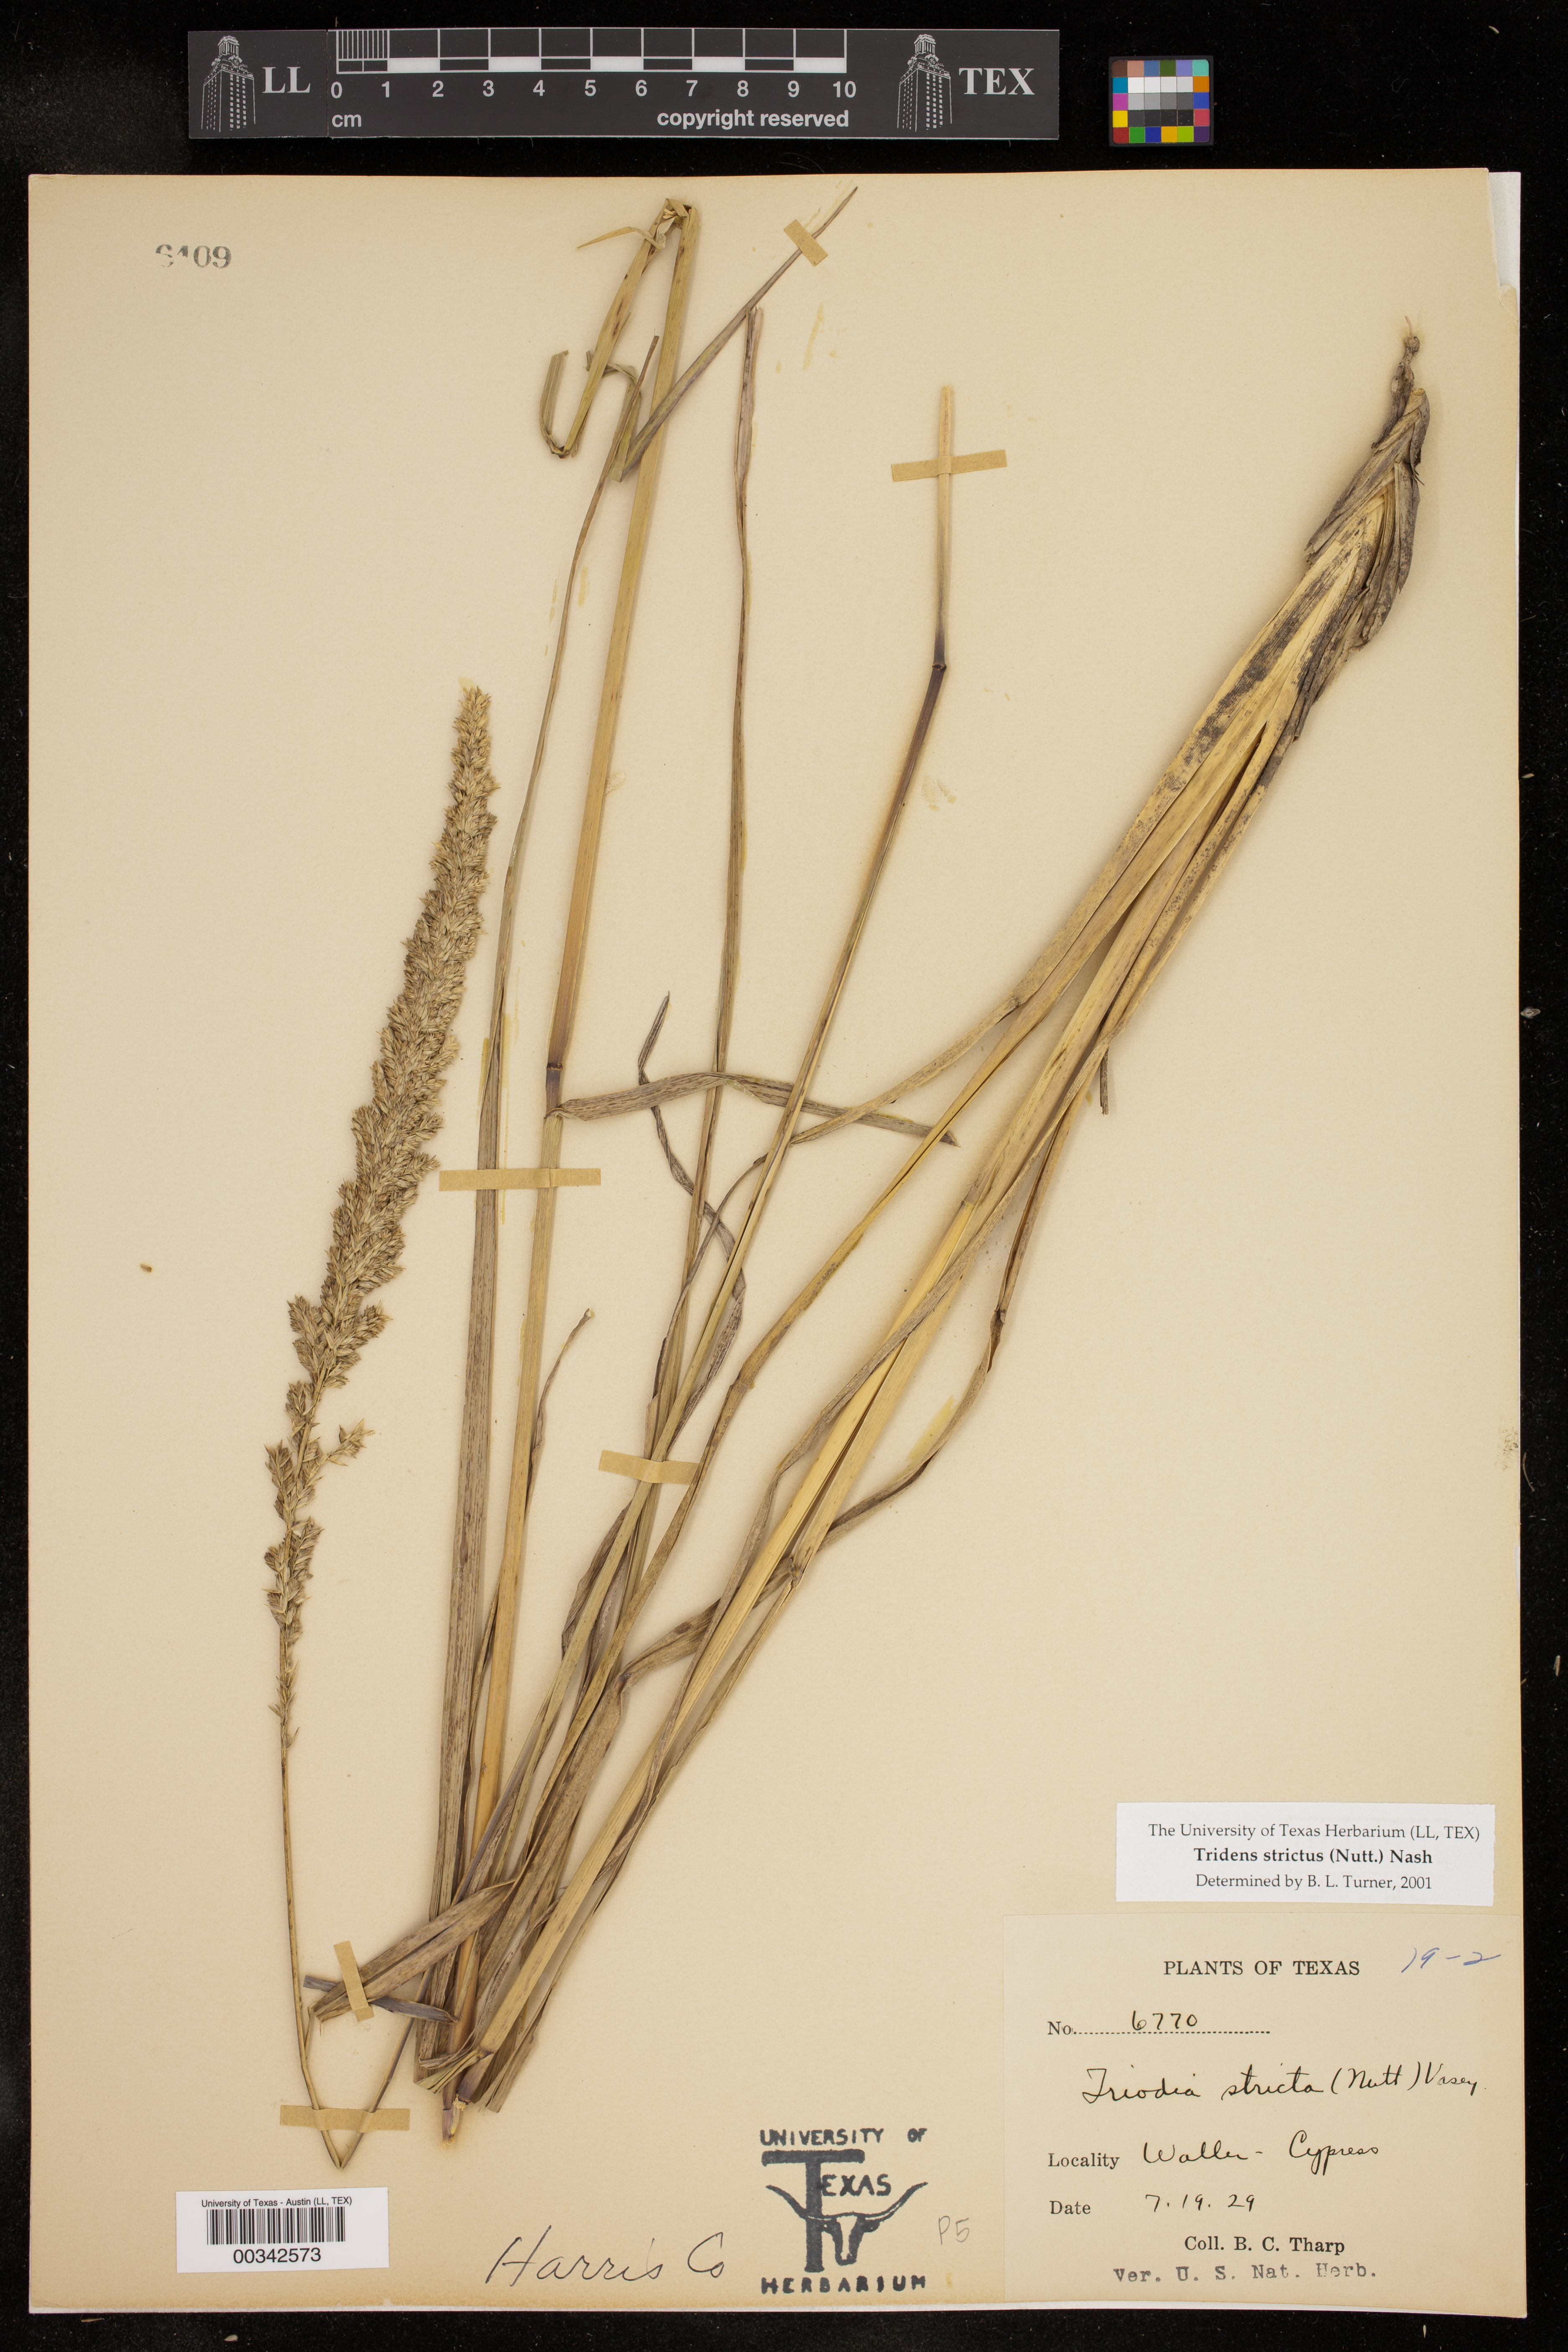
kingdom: Plantae
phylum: Tracheophyta
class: Liliopsida
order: Poales
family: Poaceae
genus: Tridens
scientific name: Tridens strictus
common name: Long-spike tridens
